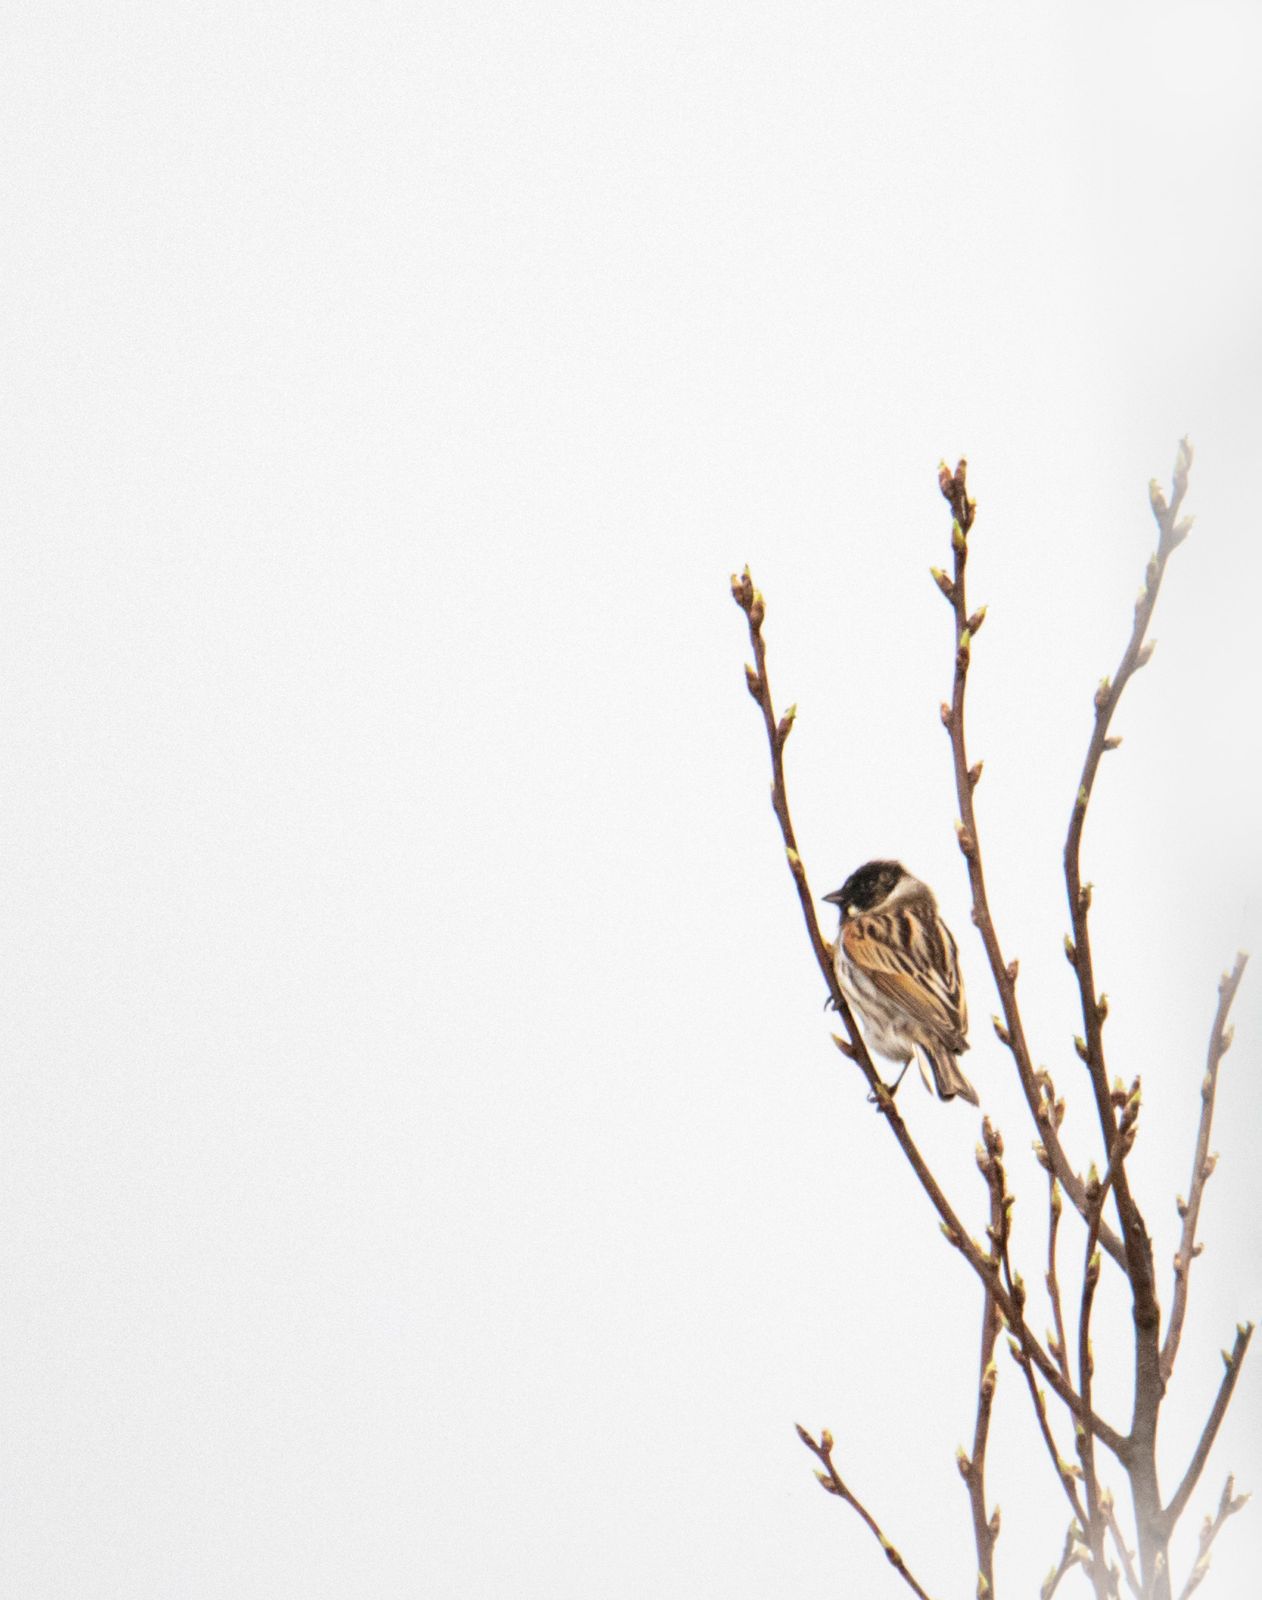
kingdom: Animalia
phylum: Chordata
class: Aves
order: Passeriformes
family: Emberizidae
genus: Emberiza
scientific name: Emberiza schoeniclus
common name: Reed bunting
